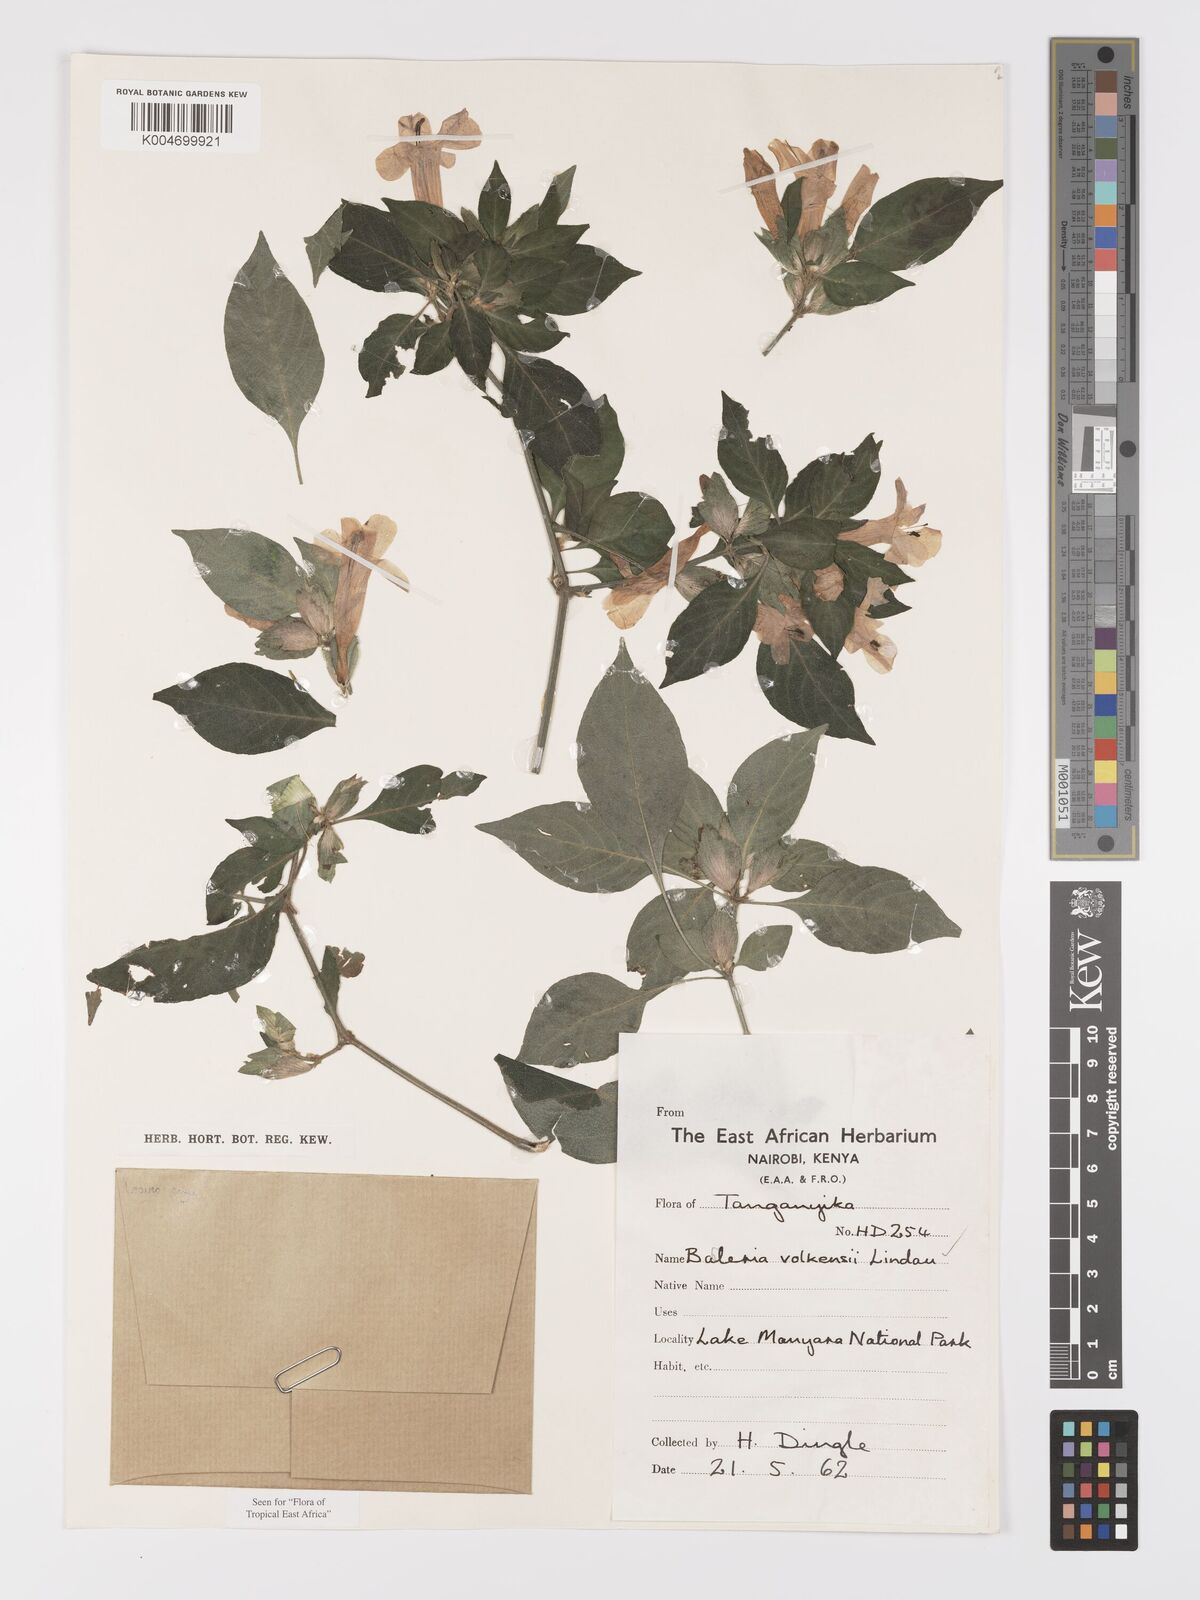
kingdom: Plantae
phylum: Tracheophyta
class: Magnoliopsida
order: Lamiales
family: Acanthaceae
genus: Barleria
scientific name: Barleria volkensii
